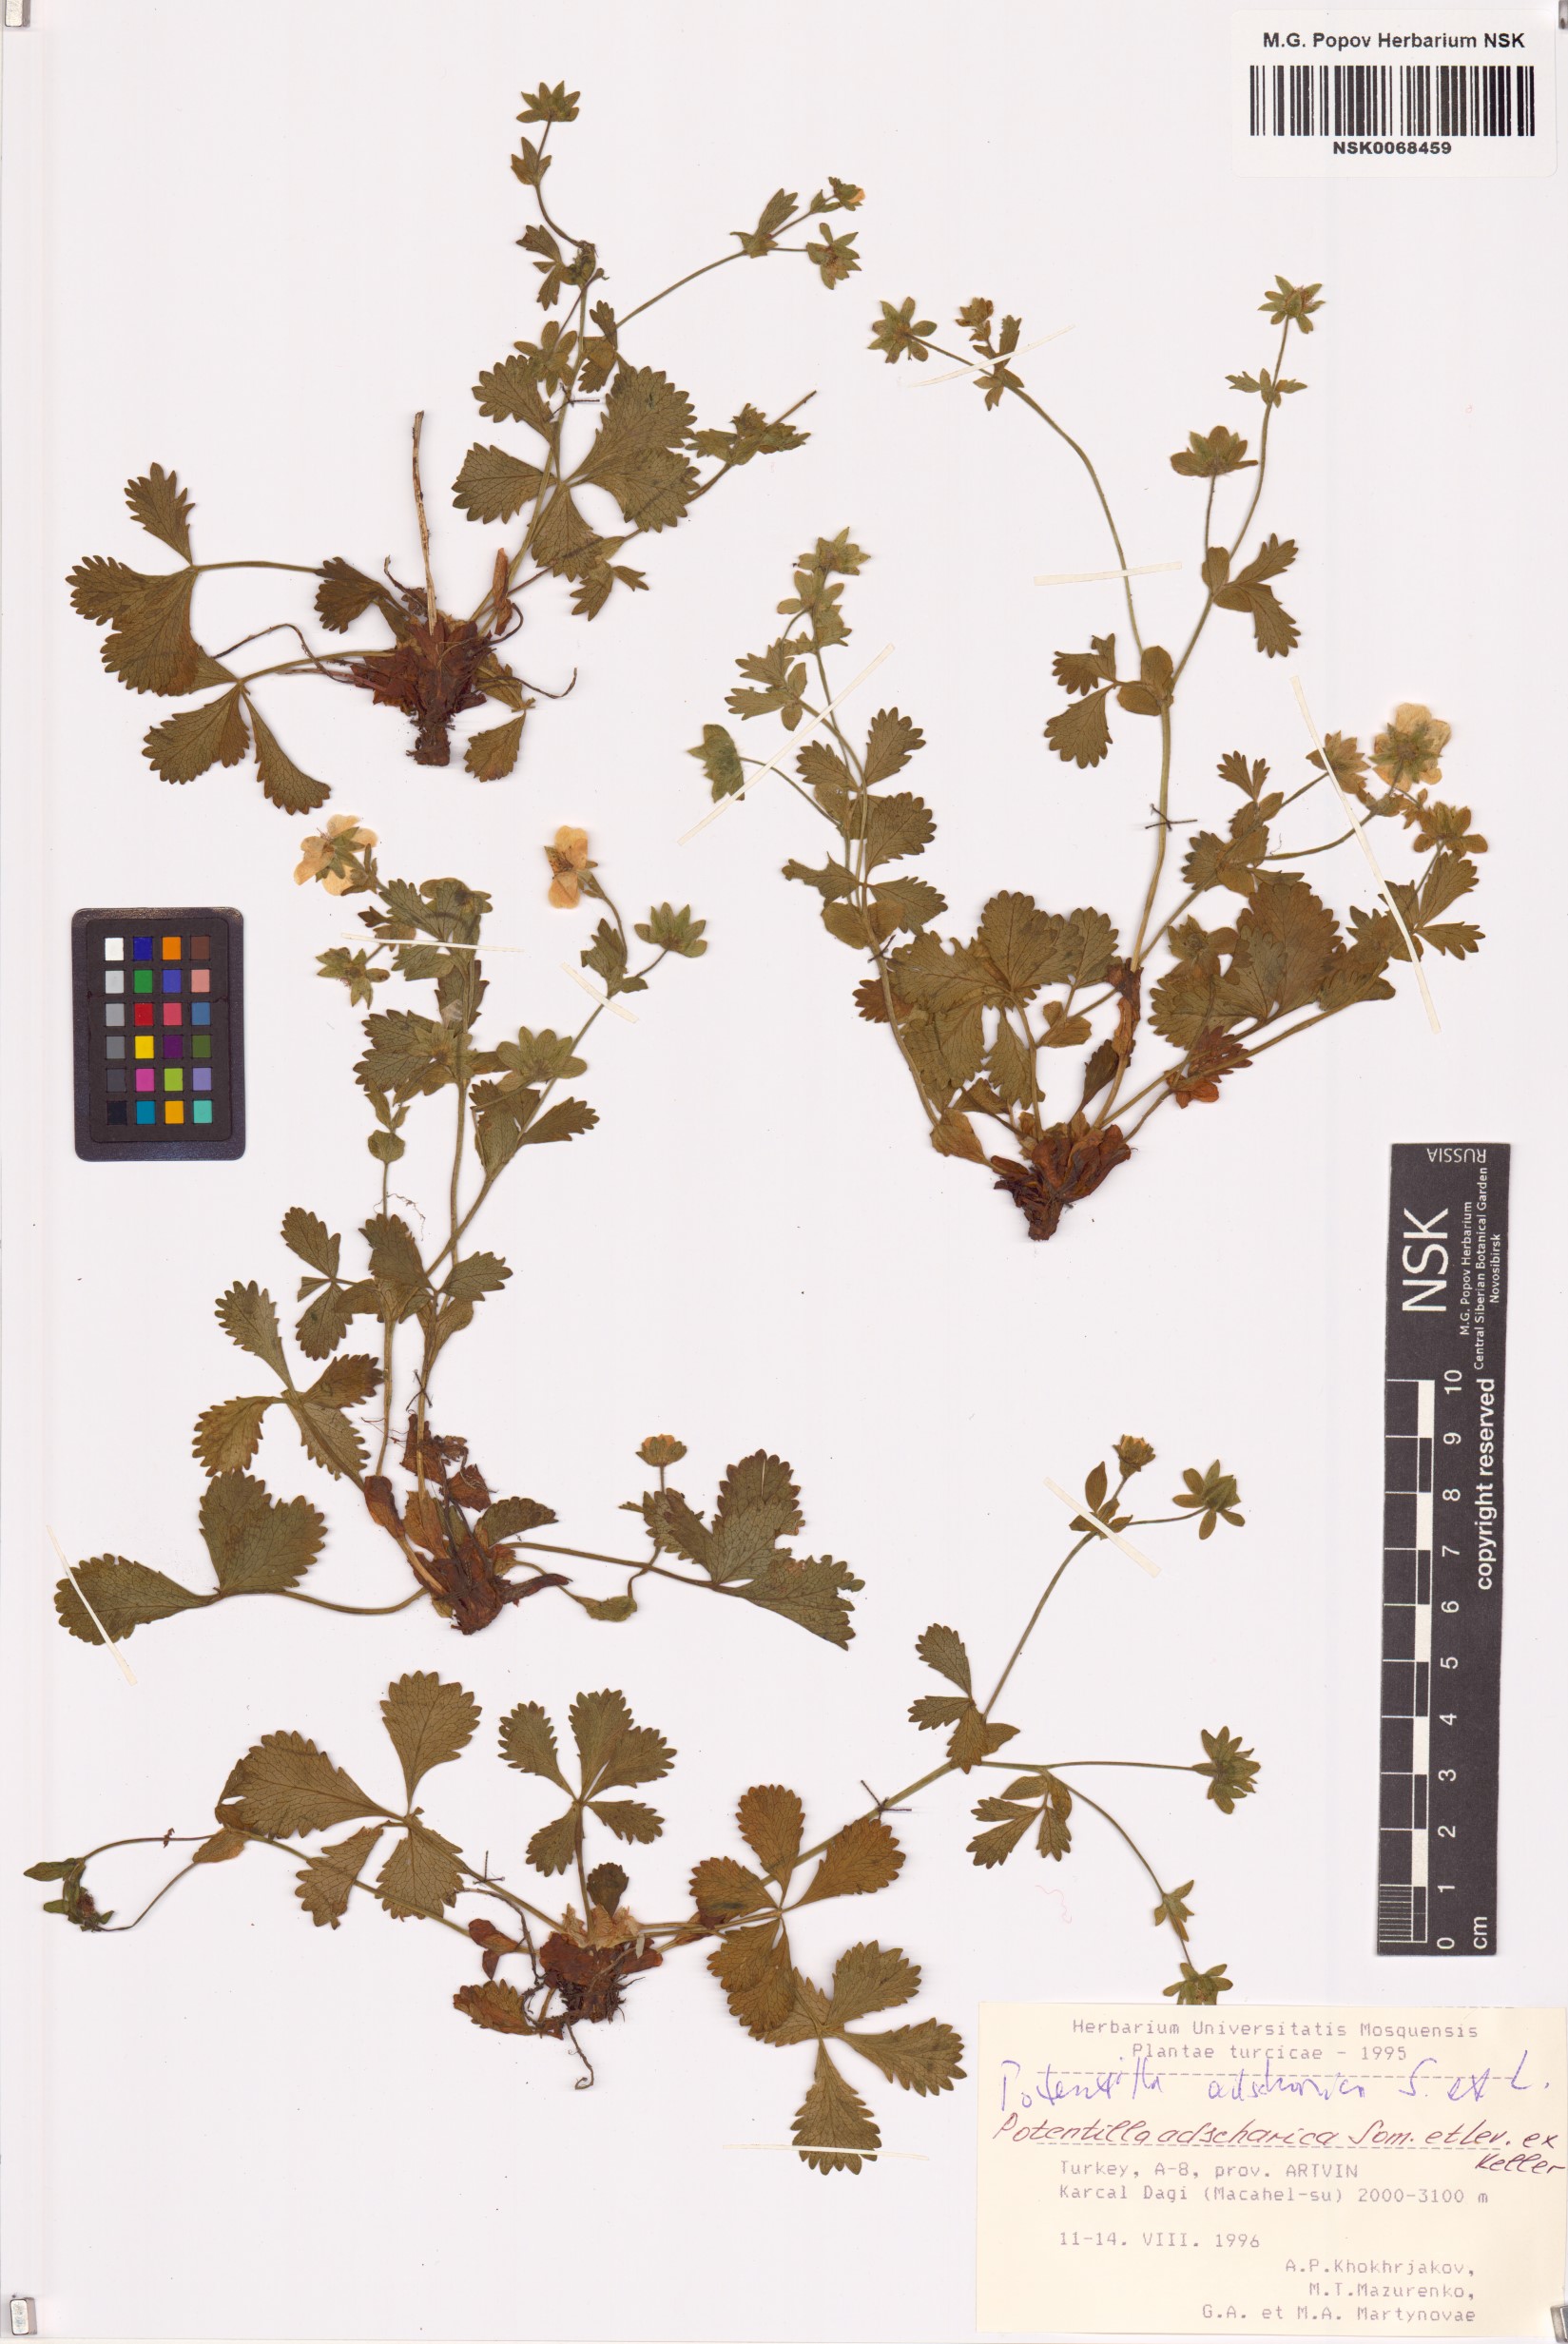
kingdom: Plantae
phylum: Tracheophyta
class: Magnoliopsida
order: Rosales
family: Rosaceae
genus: Potentilla
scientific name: Potentilla divaricata
